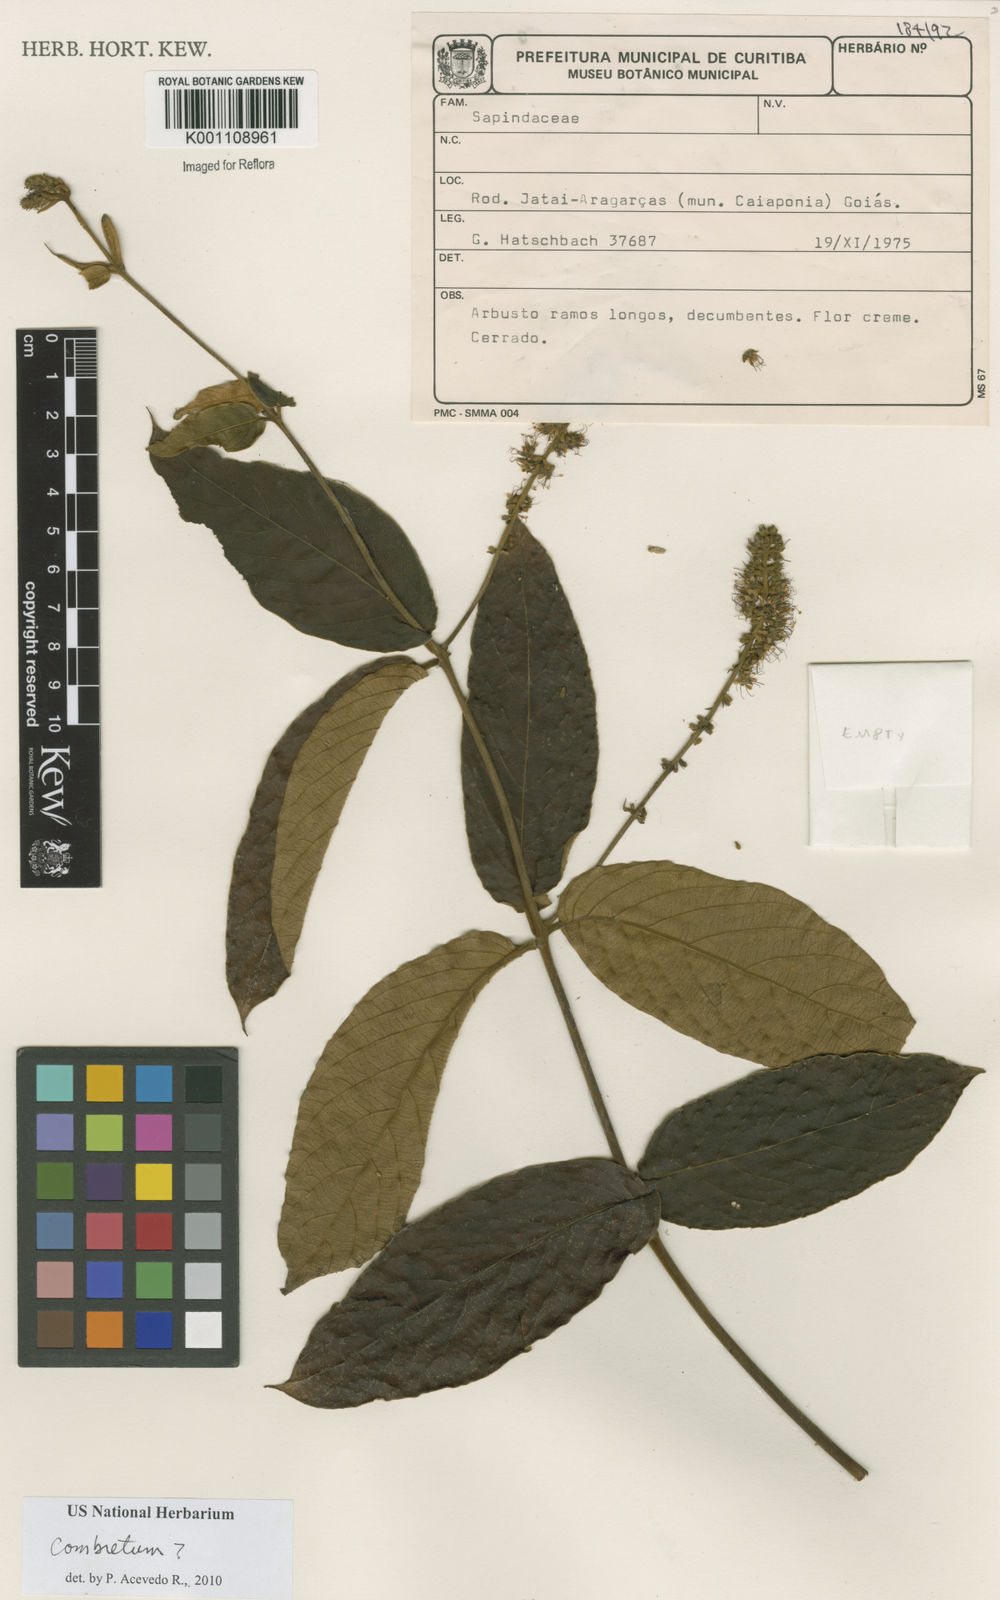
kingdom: Plantae
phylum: Tracheophyta
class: Magnoliopsida
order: Myrtales
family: Combretaceae
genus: Combretum
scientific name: Combretum
